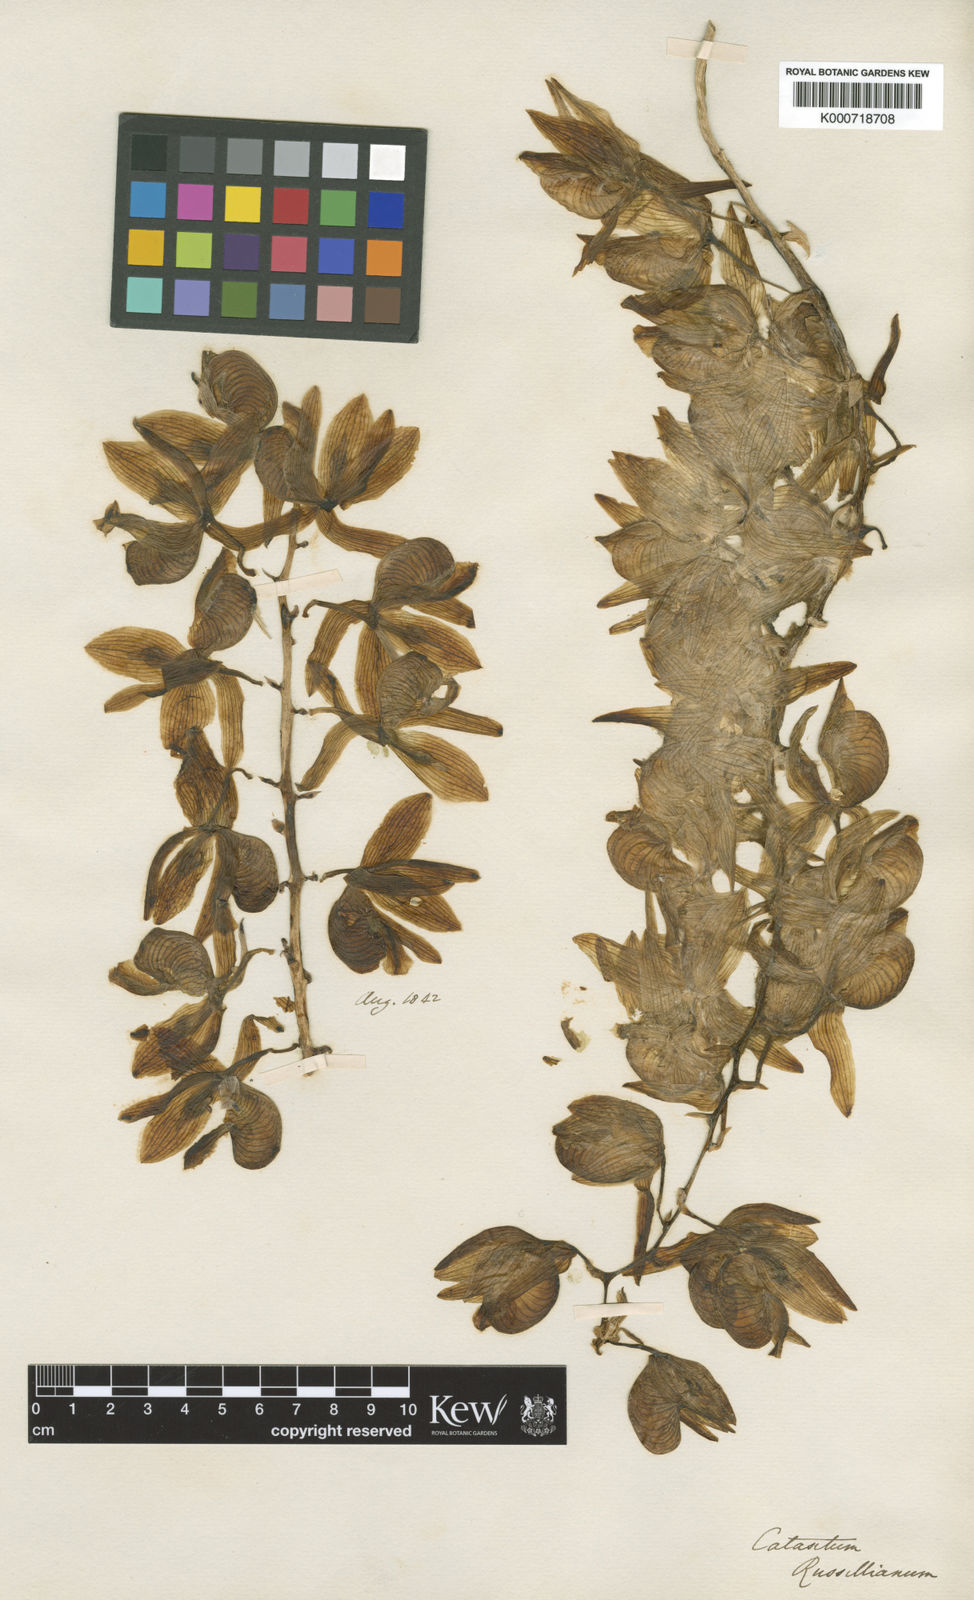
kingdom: Plantae
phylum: Tracheophyta
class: Liliopsida
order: Asparagales
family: Orchidaceae
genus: Clowesia
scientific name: Clowesia russelliana
